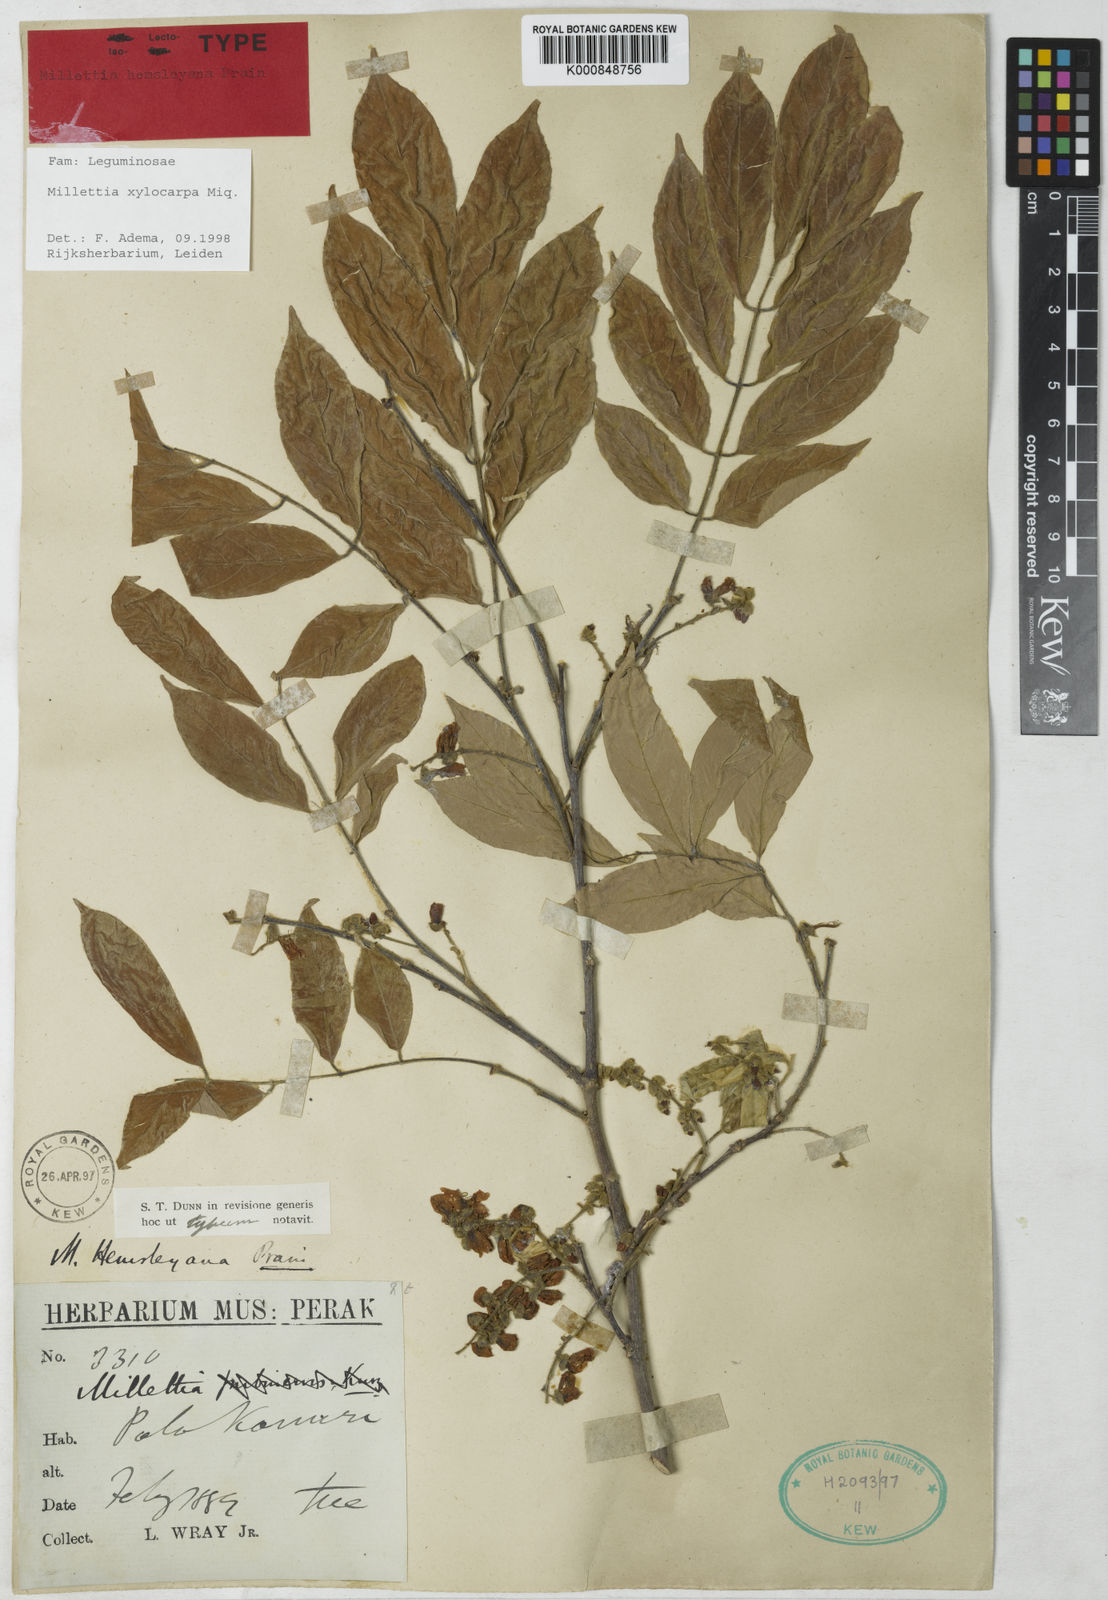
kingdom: Plantae
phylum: Tracheophyta
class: Magnoliopsida
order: Fabales
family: Fabaceae
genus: Millettia
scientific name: Millettia xylocarpa
